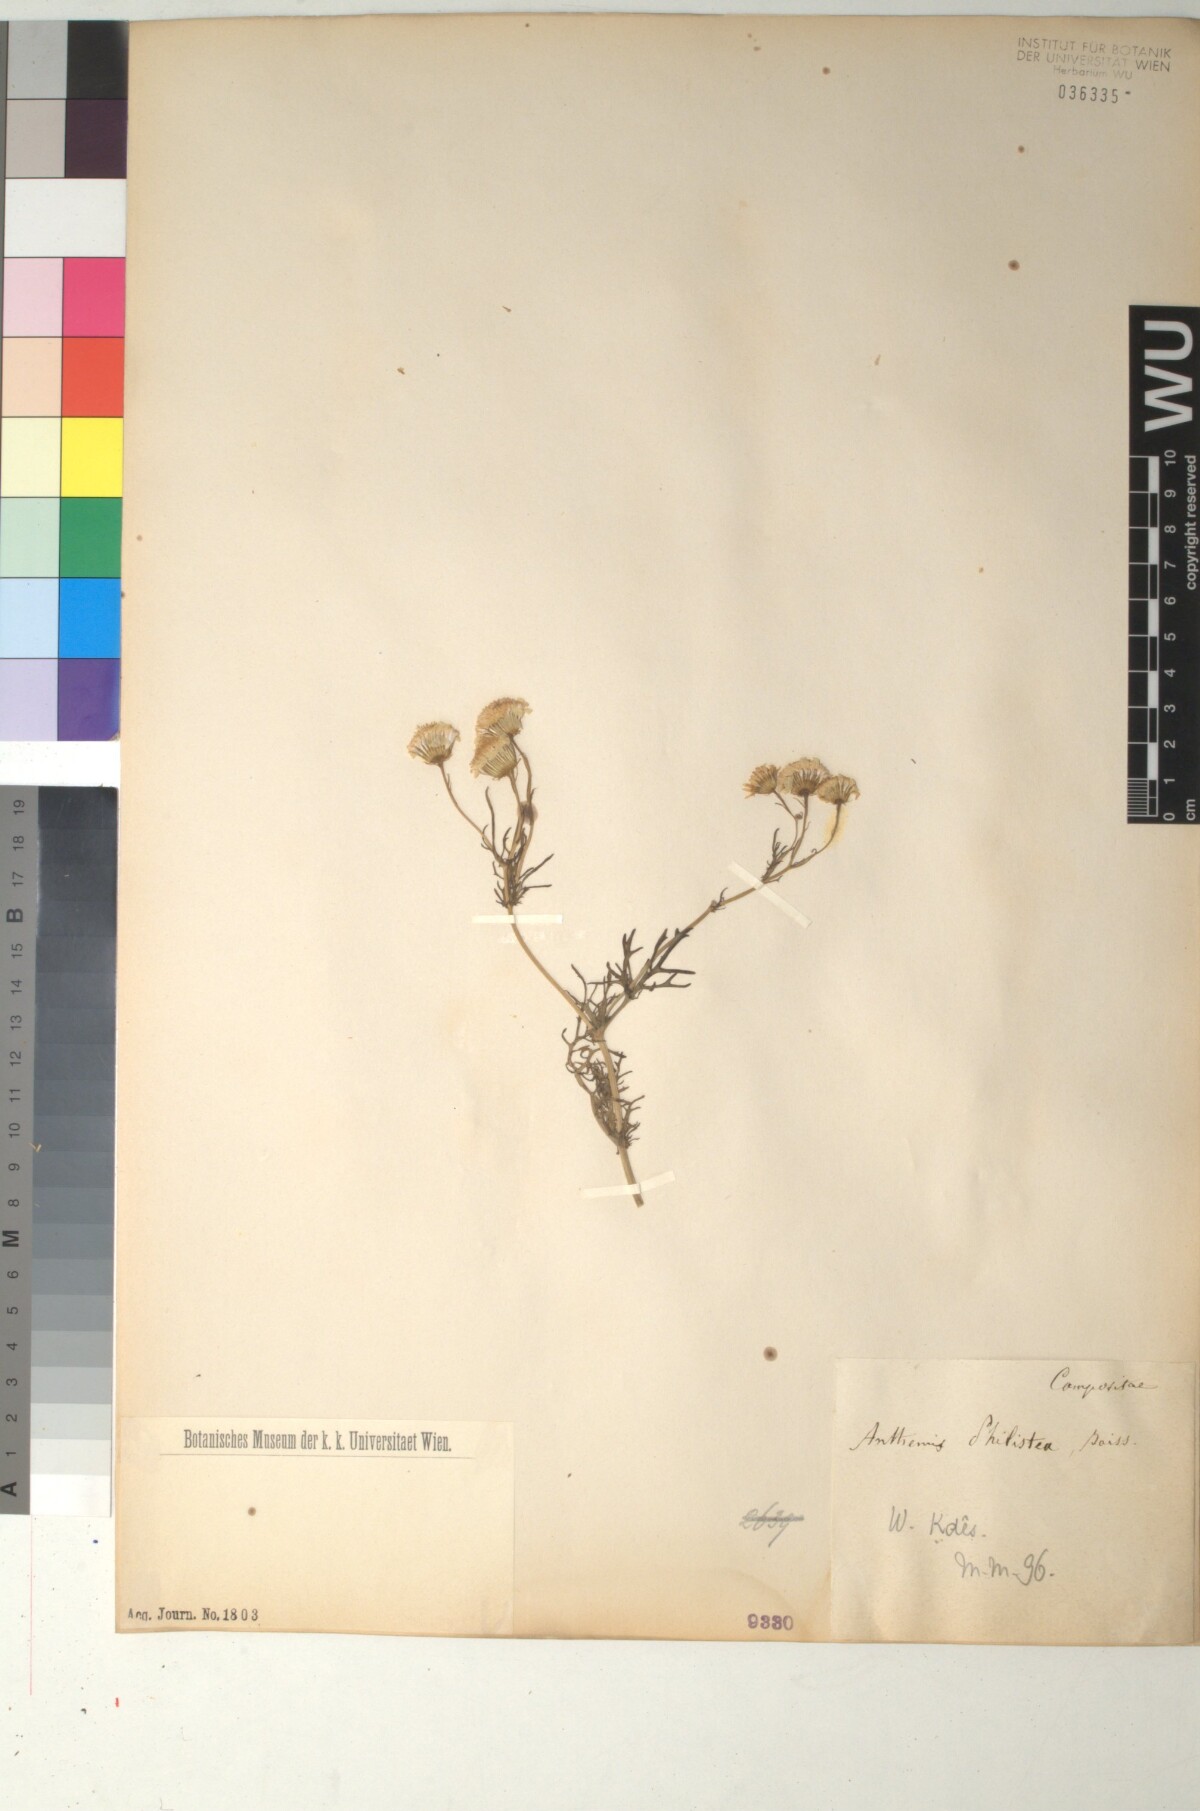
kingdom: Plantae
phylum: Tracheophyta
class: Magnoliopsida
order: Asterales
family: Asteraceae
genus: Anthemis
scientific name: Anthemis indurata
